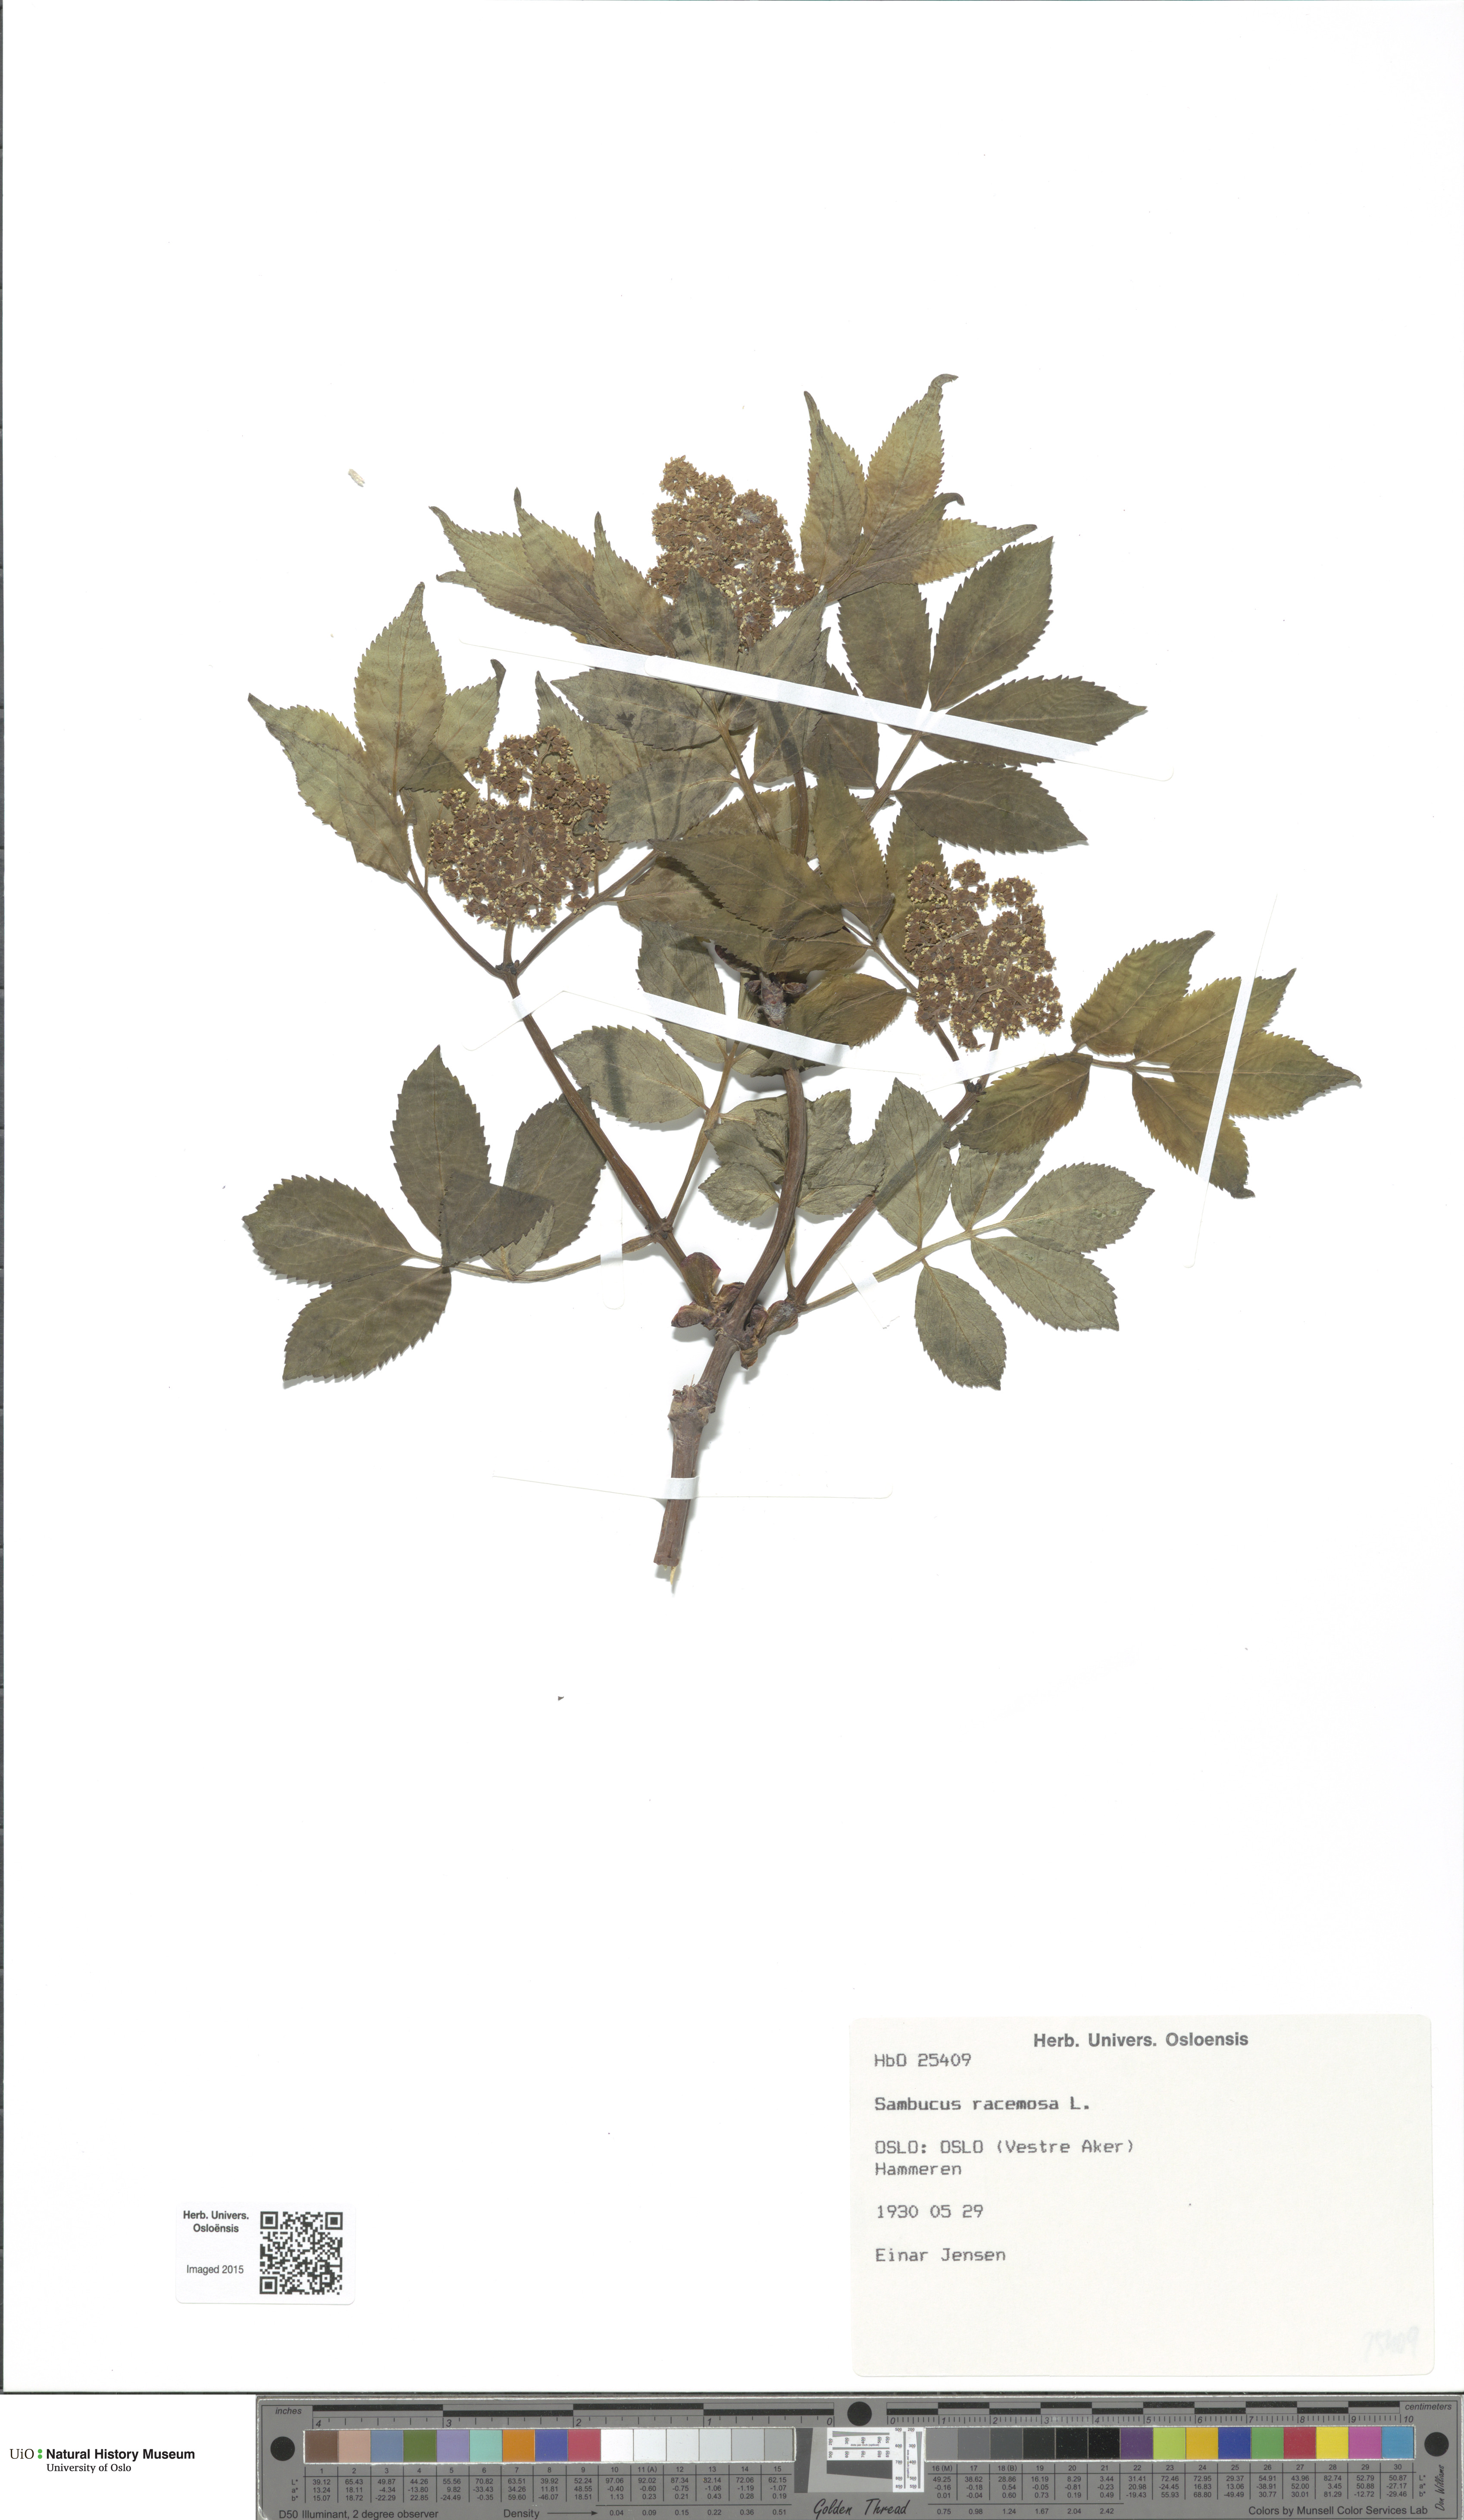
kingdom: Plantae
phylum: Tracheophyta
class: Magnoliopsida
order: Dipsacales
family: Viburnaceae
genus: Sambucus
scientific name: Sambucus racemosa
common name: Red-berried elder
